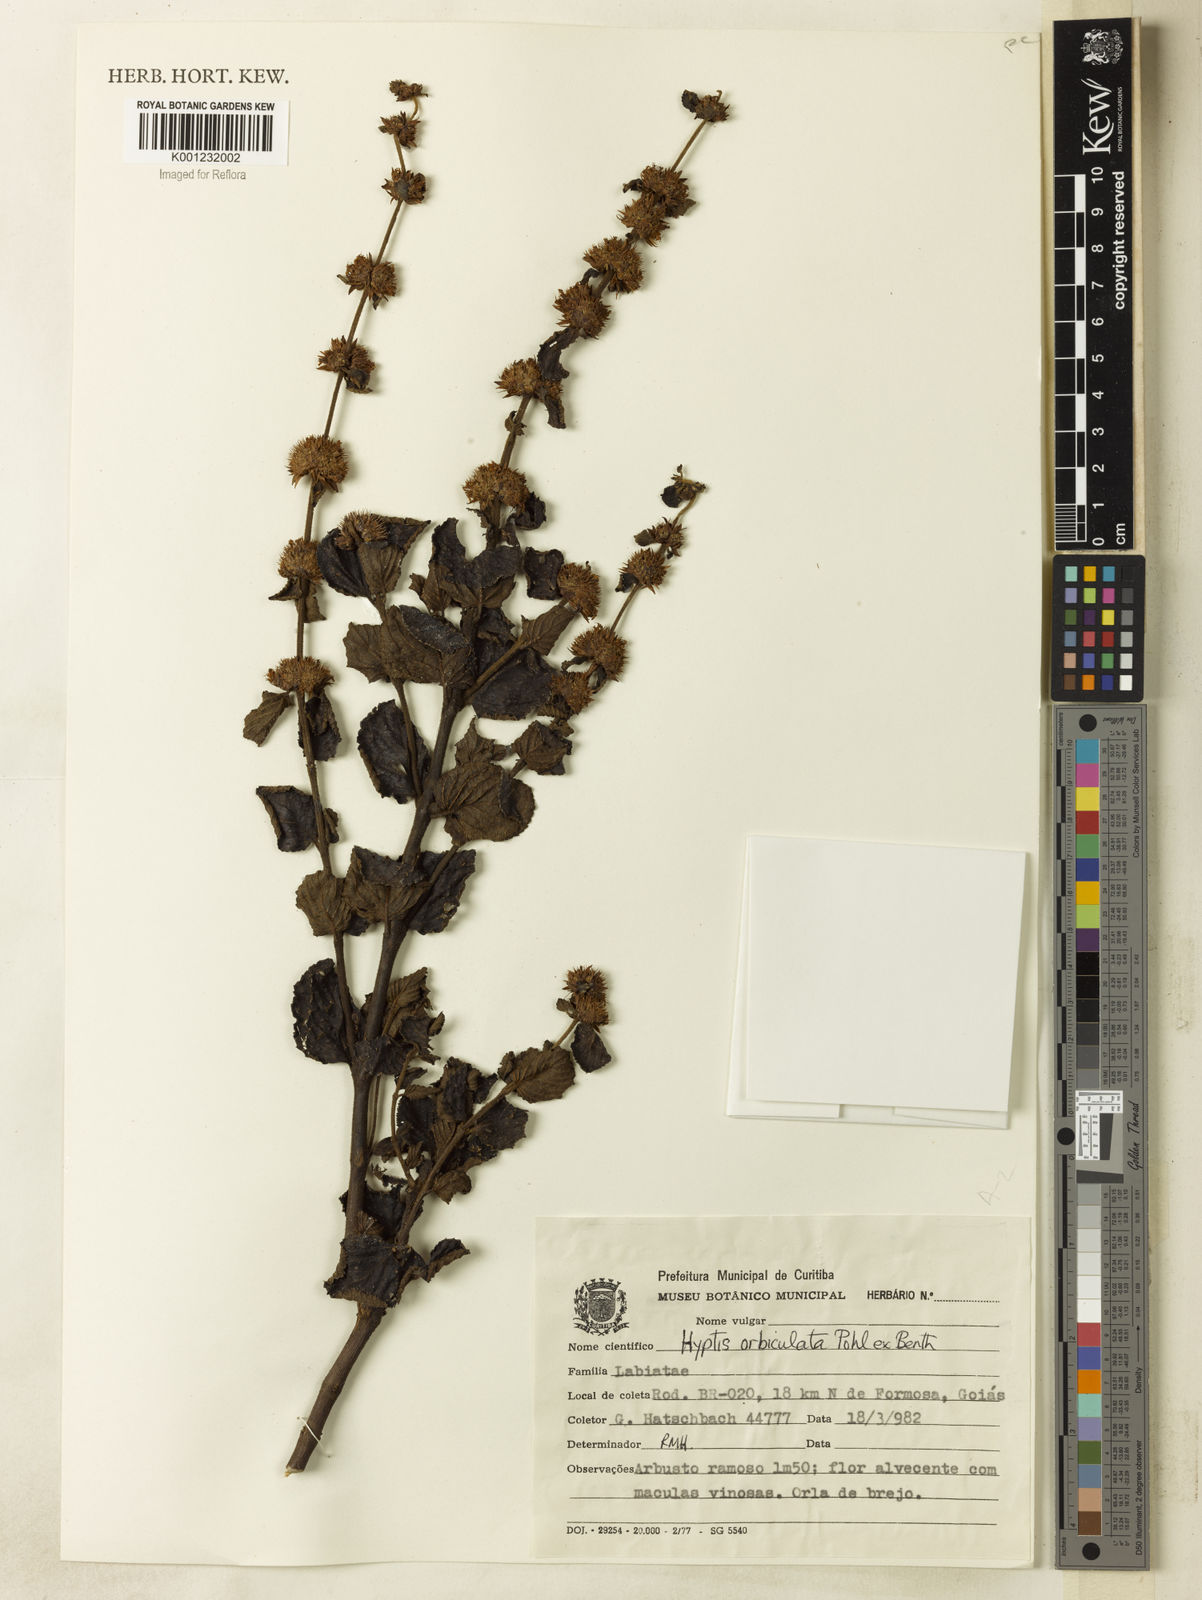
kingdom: Plantae
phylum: Tracheophyta
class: Magnoliopsida
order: Lamiales
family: Lamiaceae
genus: Hyptis
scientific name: Hyptis orbiculata
